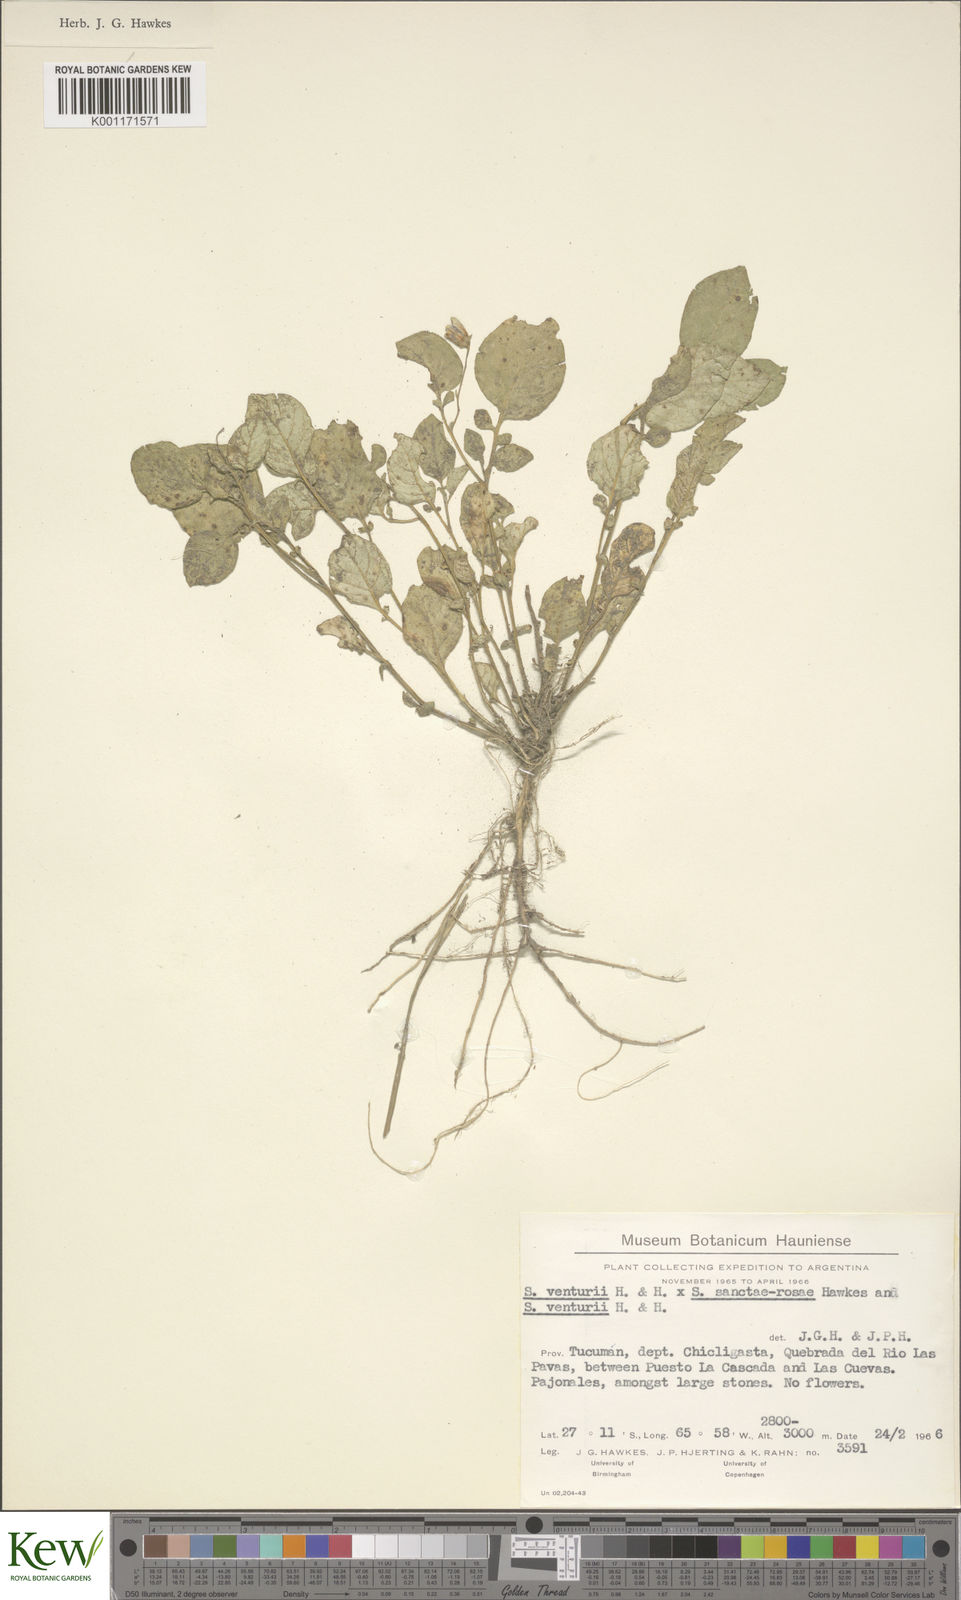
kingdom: Plantae
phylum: Tracheophyta
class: Magnoliopsida
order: Solanales
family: Solanaceae
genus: Solanum
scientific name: Solanum venturii
